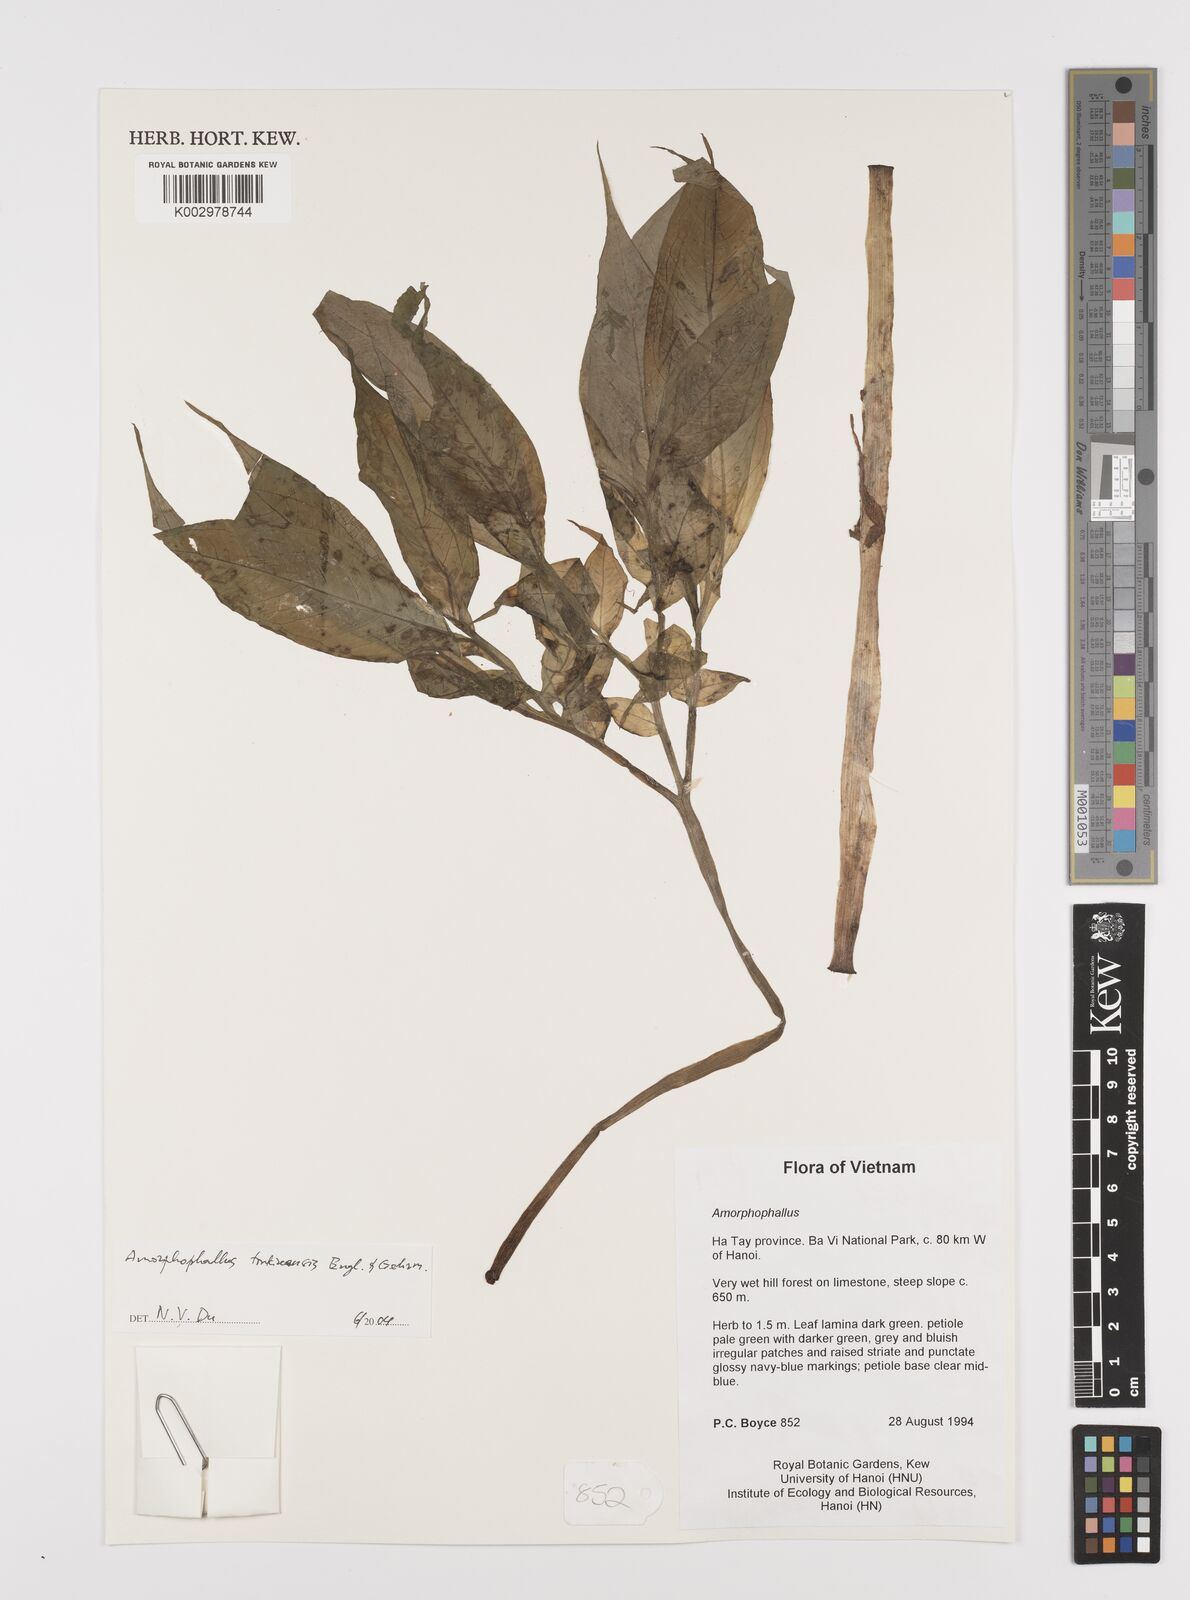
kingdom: Plantae
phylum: Tracheophyta
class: Liliopsida
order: Alismatales
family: Araceae
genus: Amorphophallus
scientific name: Amorphophallus tonkinensis
